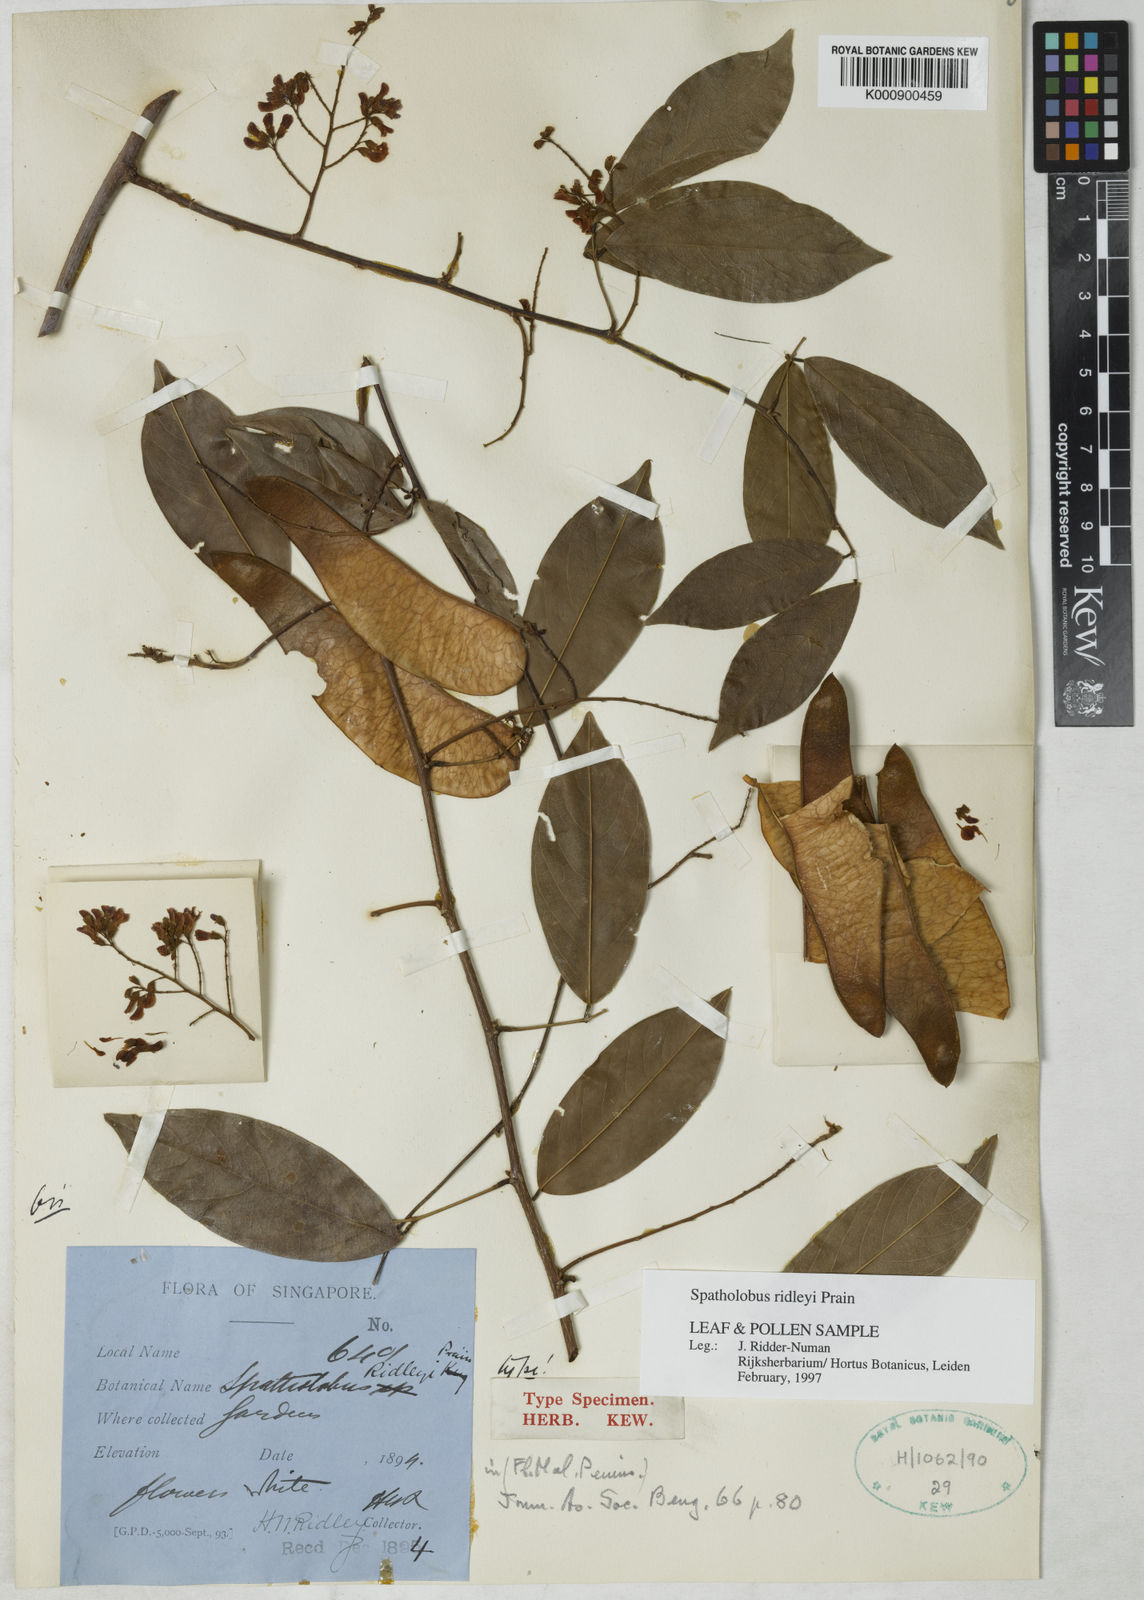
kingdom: Plantae
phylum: Tracheophyta
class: Magnoliopsida
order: Fabales
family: Fabaceae
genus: Spatholobus
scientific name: Spatholobus
